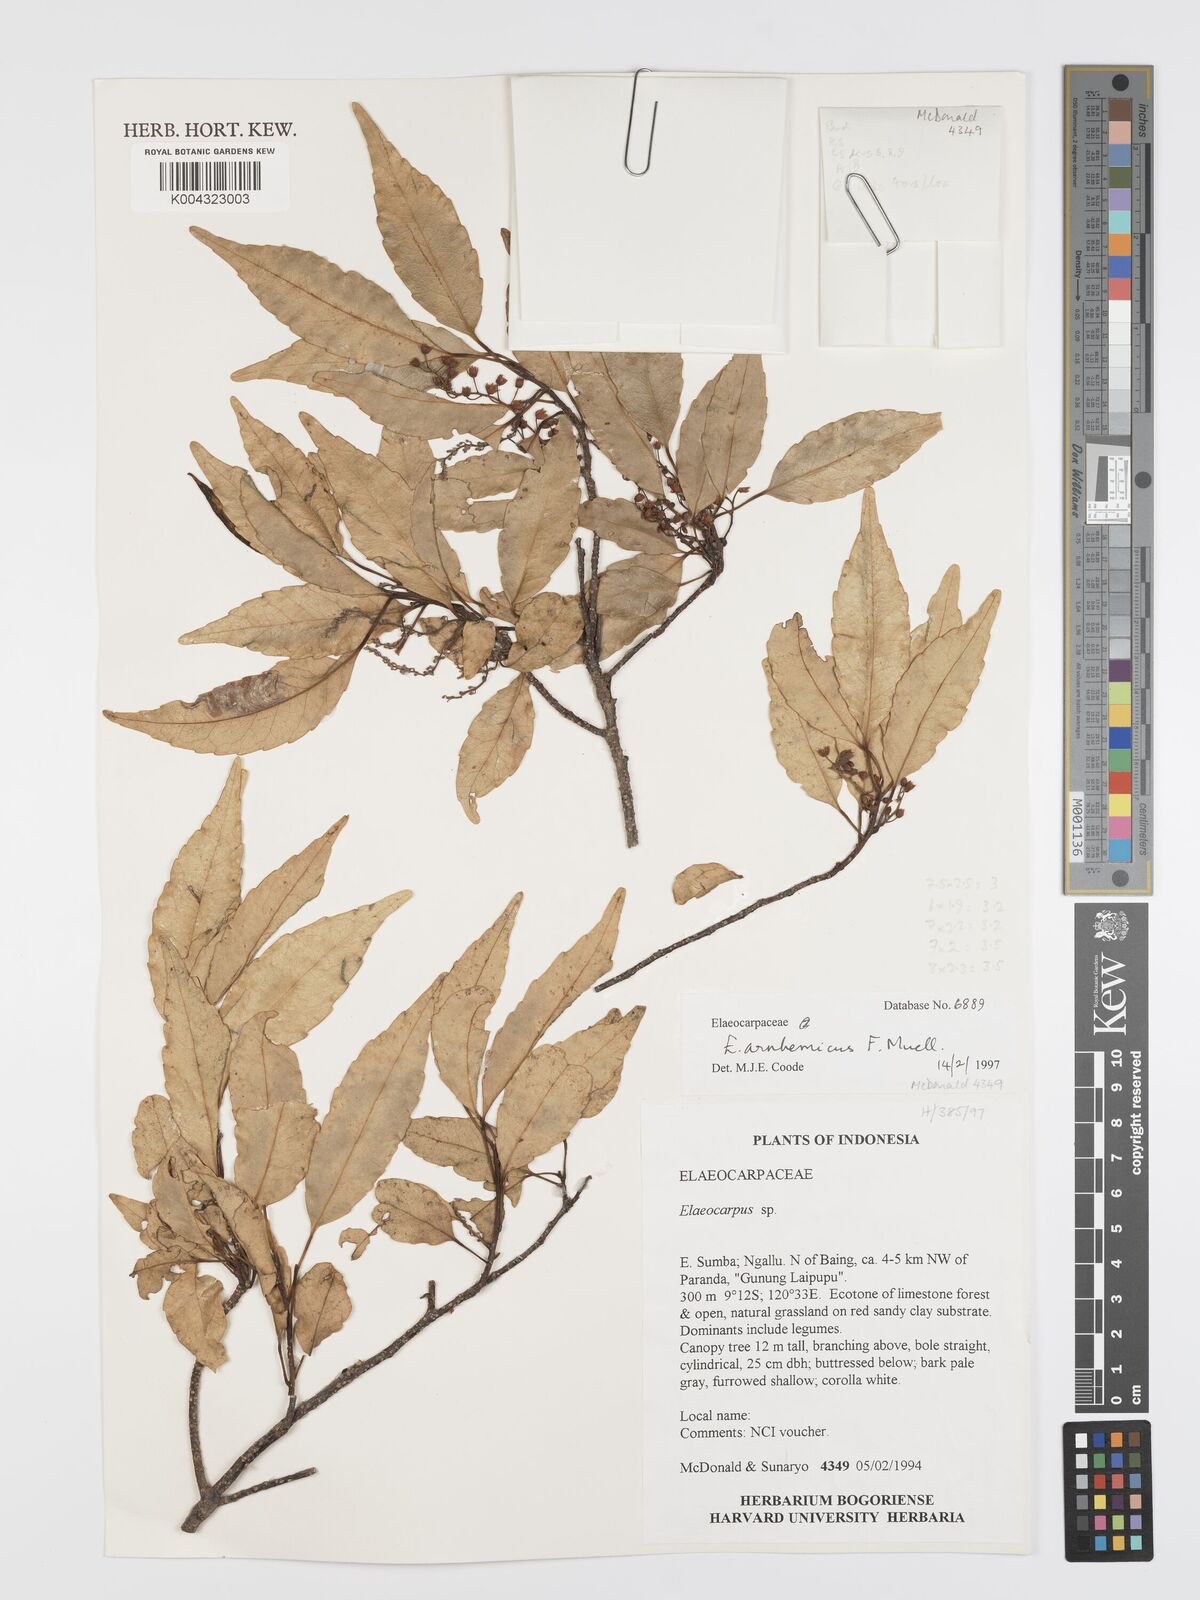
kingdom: Plantae
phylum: Tracheophyta
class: Magnoliopsida
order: Oxalidales
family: Elaeocarpaceae
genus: Elaeocarpus
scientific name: Elaeocarpus arnhemicus
